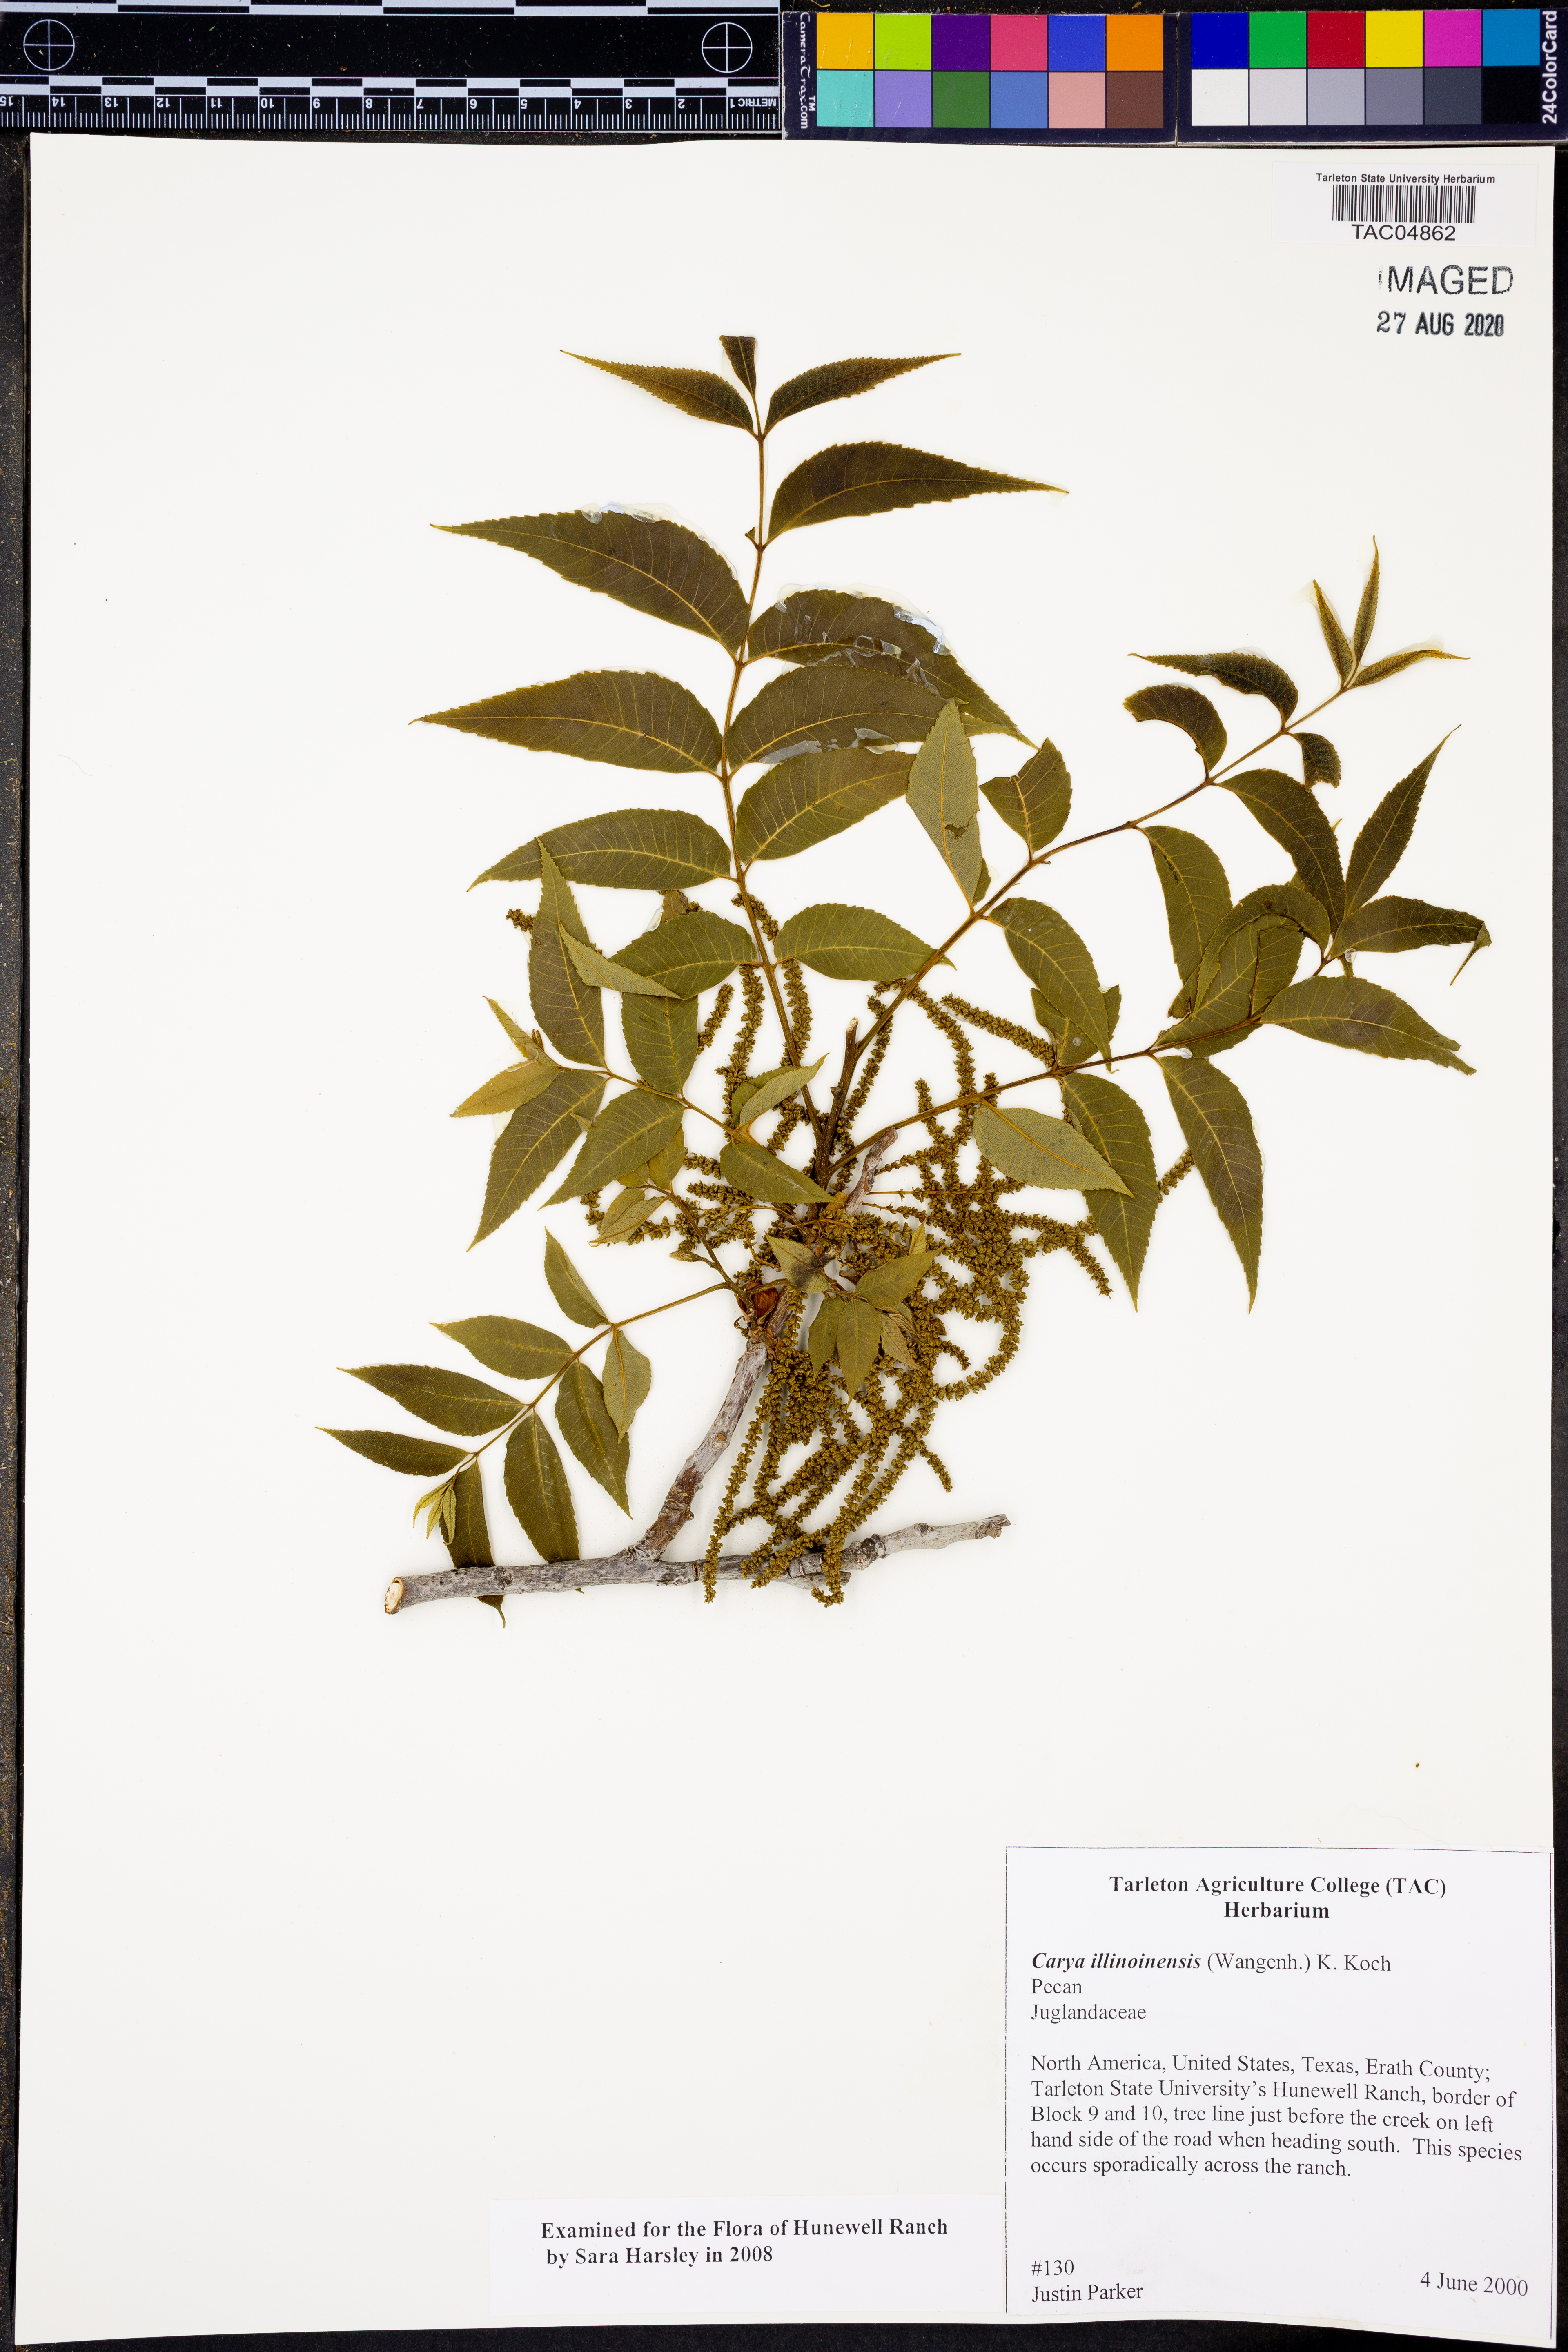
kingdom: Plantae
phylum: Tracheophyta
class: Magnoliopsida
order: Fagales
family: Juglandaceae
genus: Carya
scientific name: Carya illinoinensis
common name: Pecan
